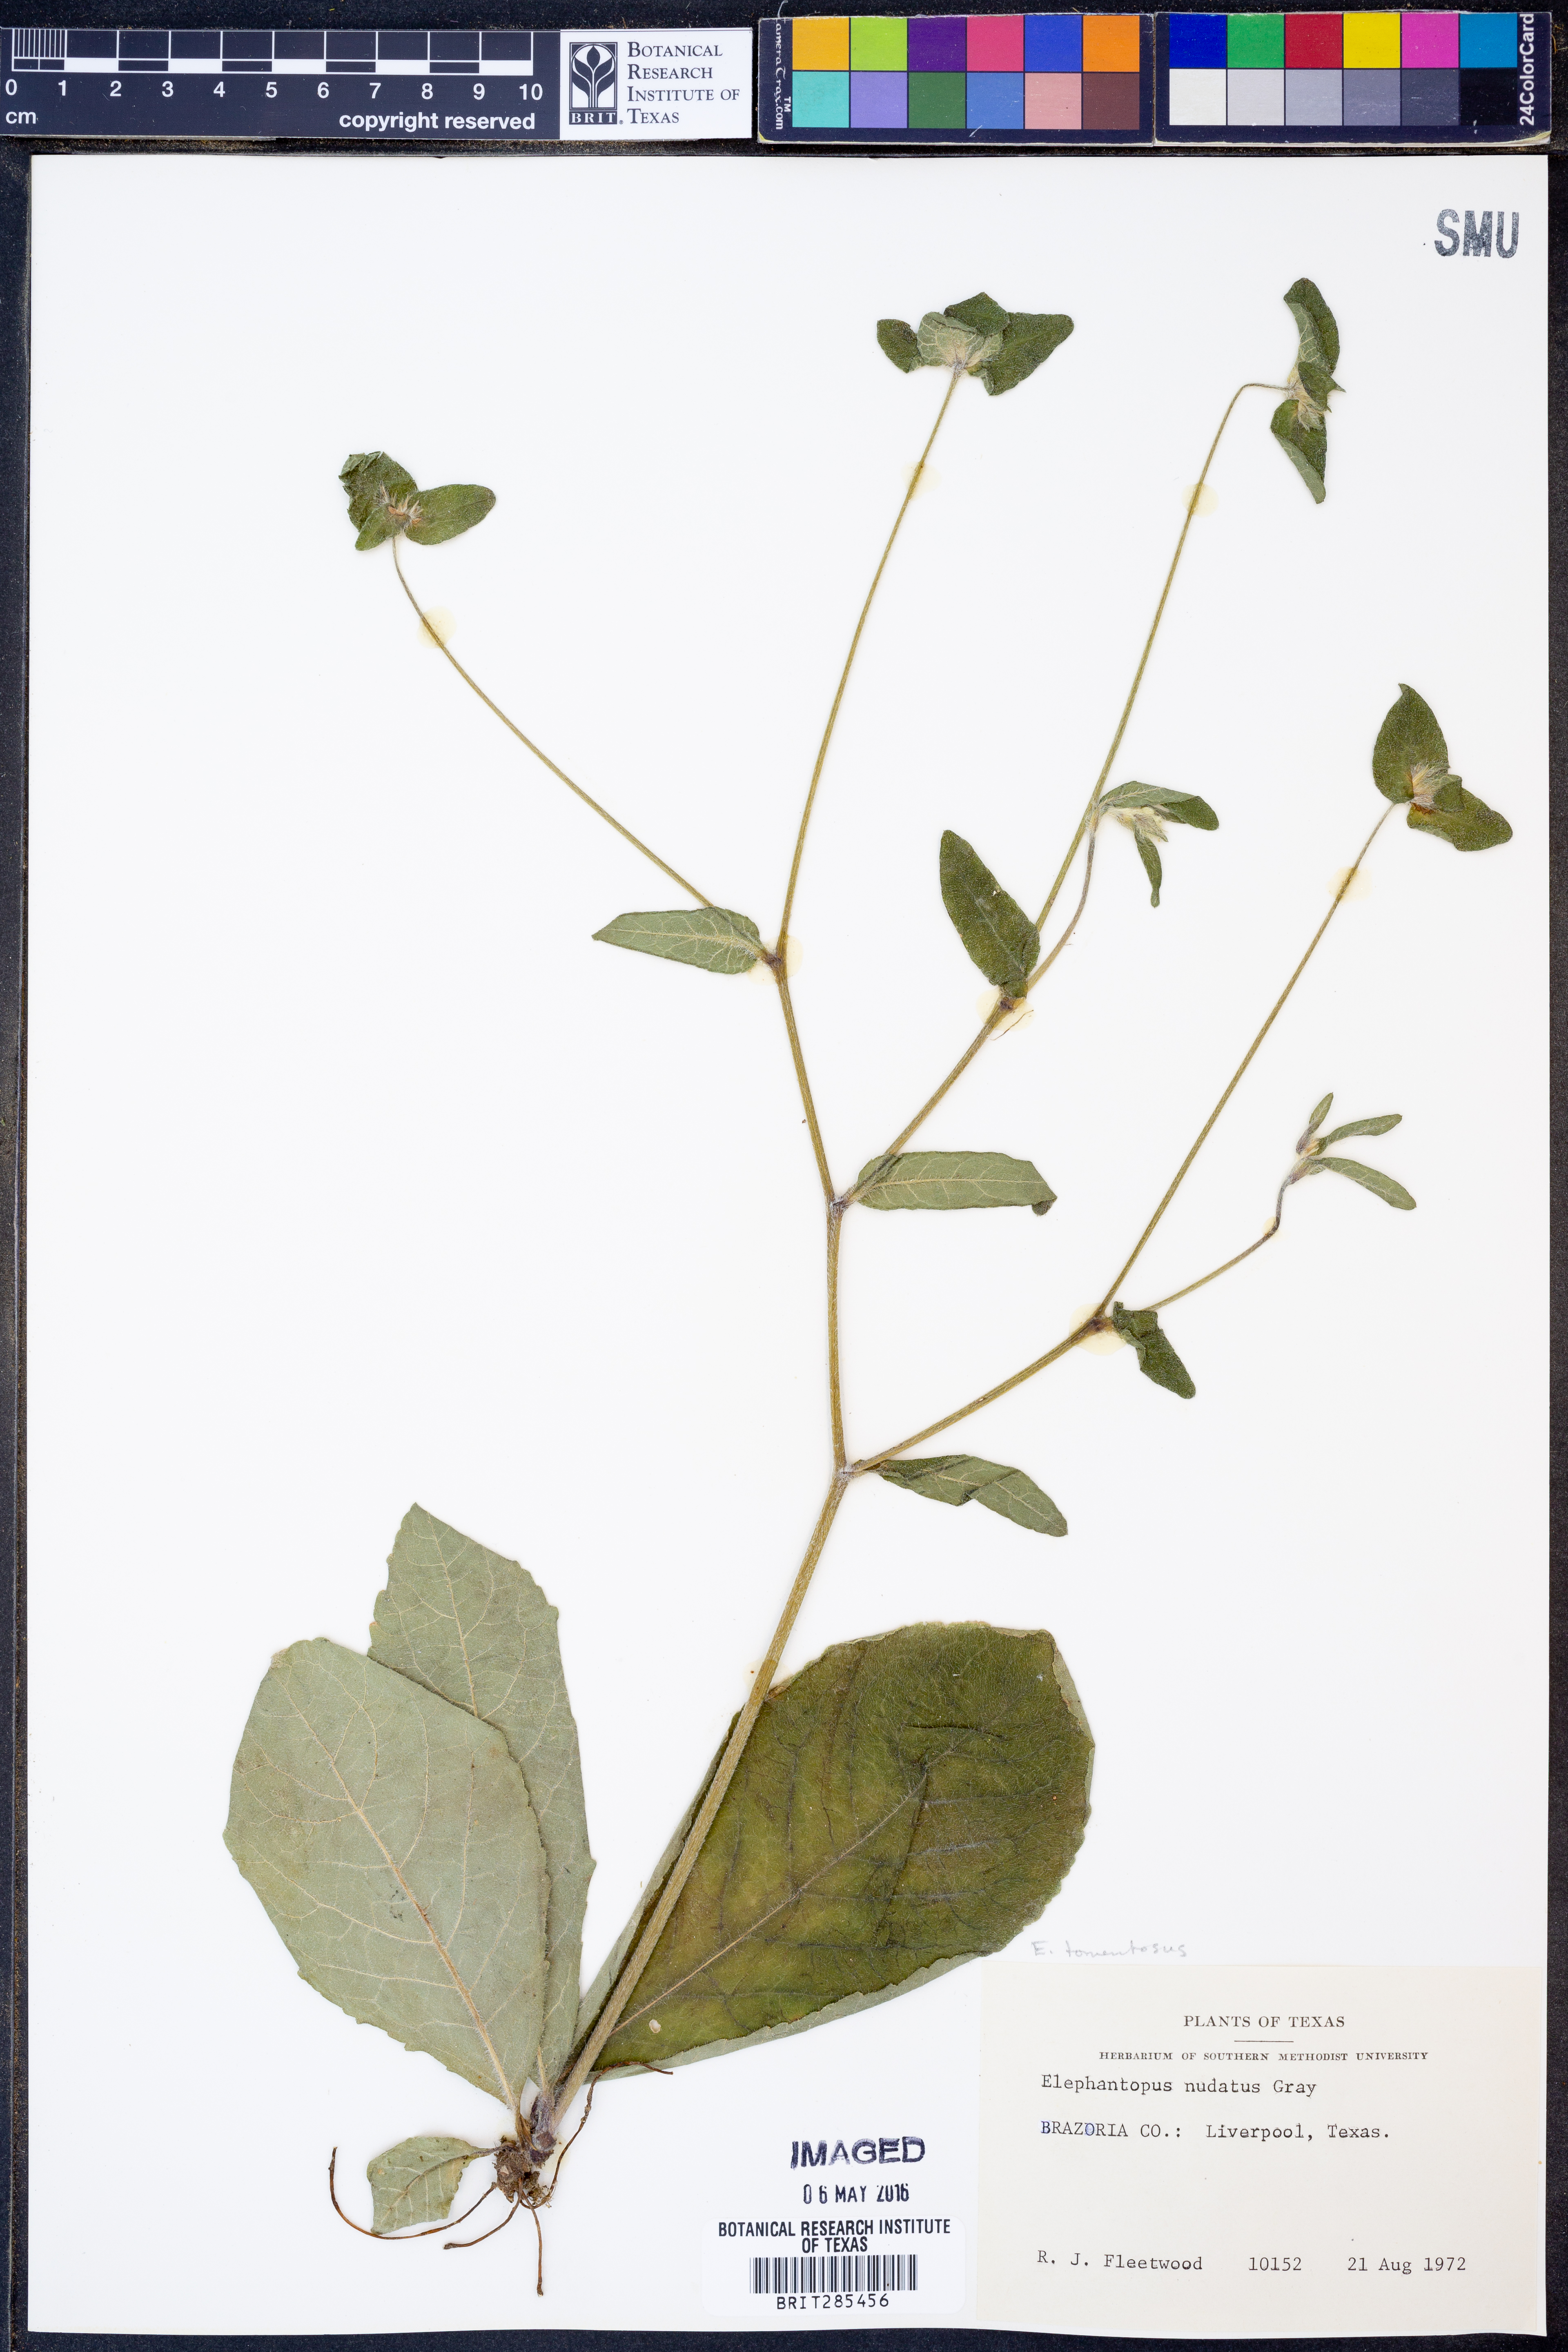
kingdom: Plantae
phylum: Tracheophyta
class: Magnoliopsida
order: Asterales
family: Asteraceae
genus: Elephantopus
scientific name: Elephantopus tomentosus
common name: Tobacco-weed
